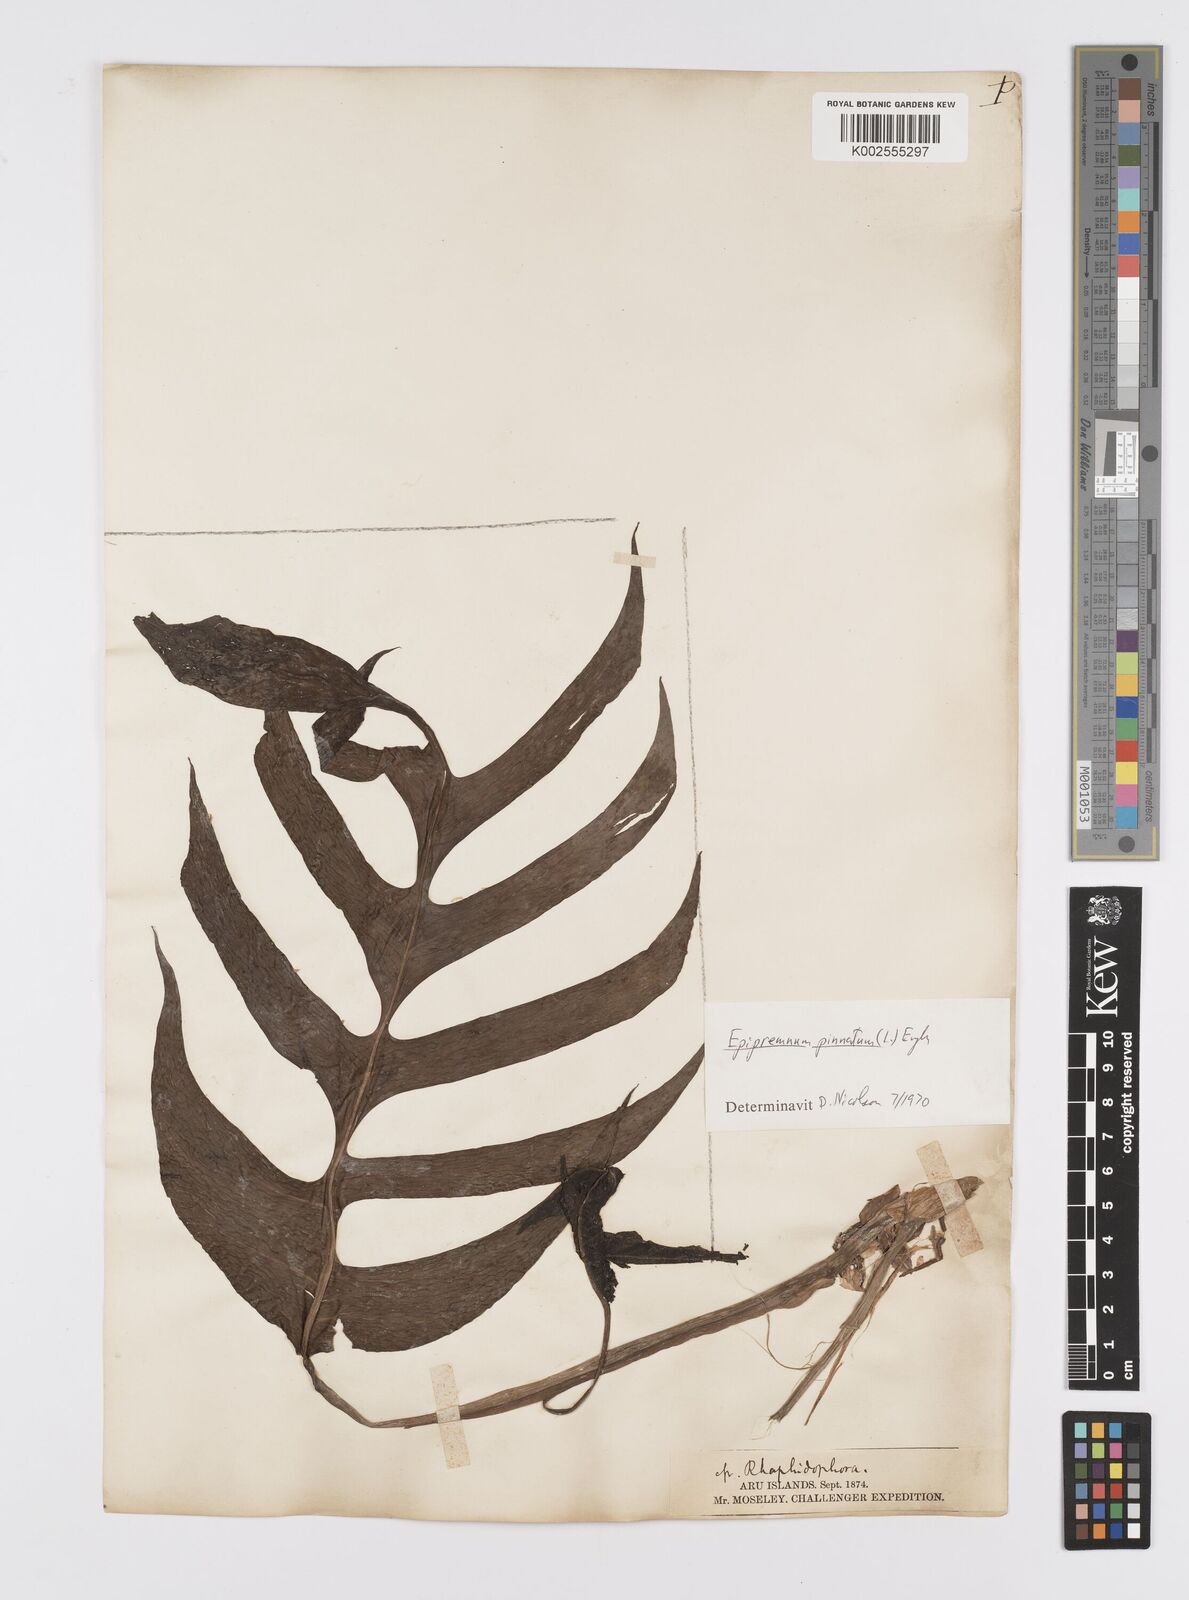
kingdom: Plantae
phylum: Tracheophyta
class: Liliopsida
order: Alismatales
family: Araceae
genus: Epipremnum
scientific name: Epipremnum pinnatum
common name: Centipede tongavine
